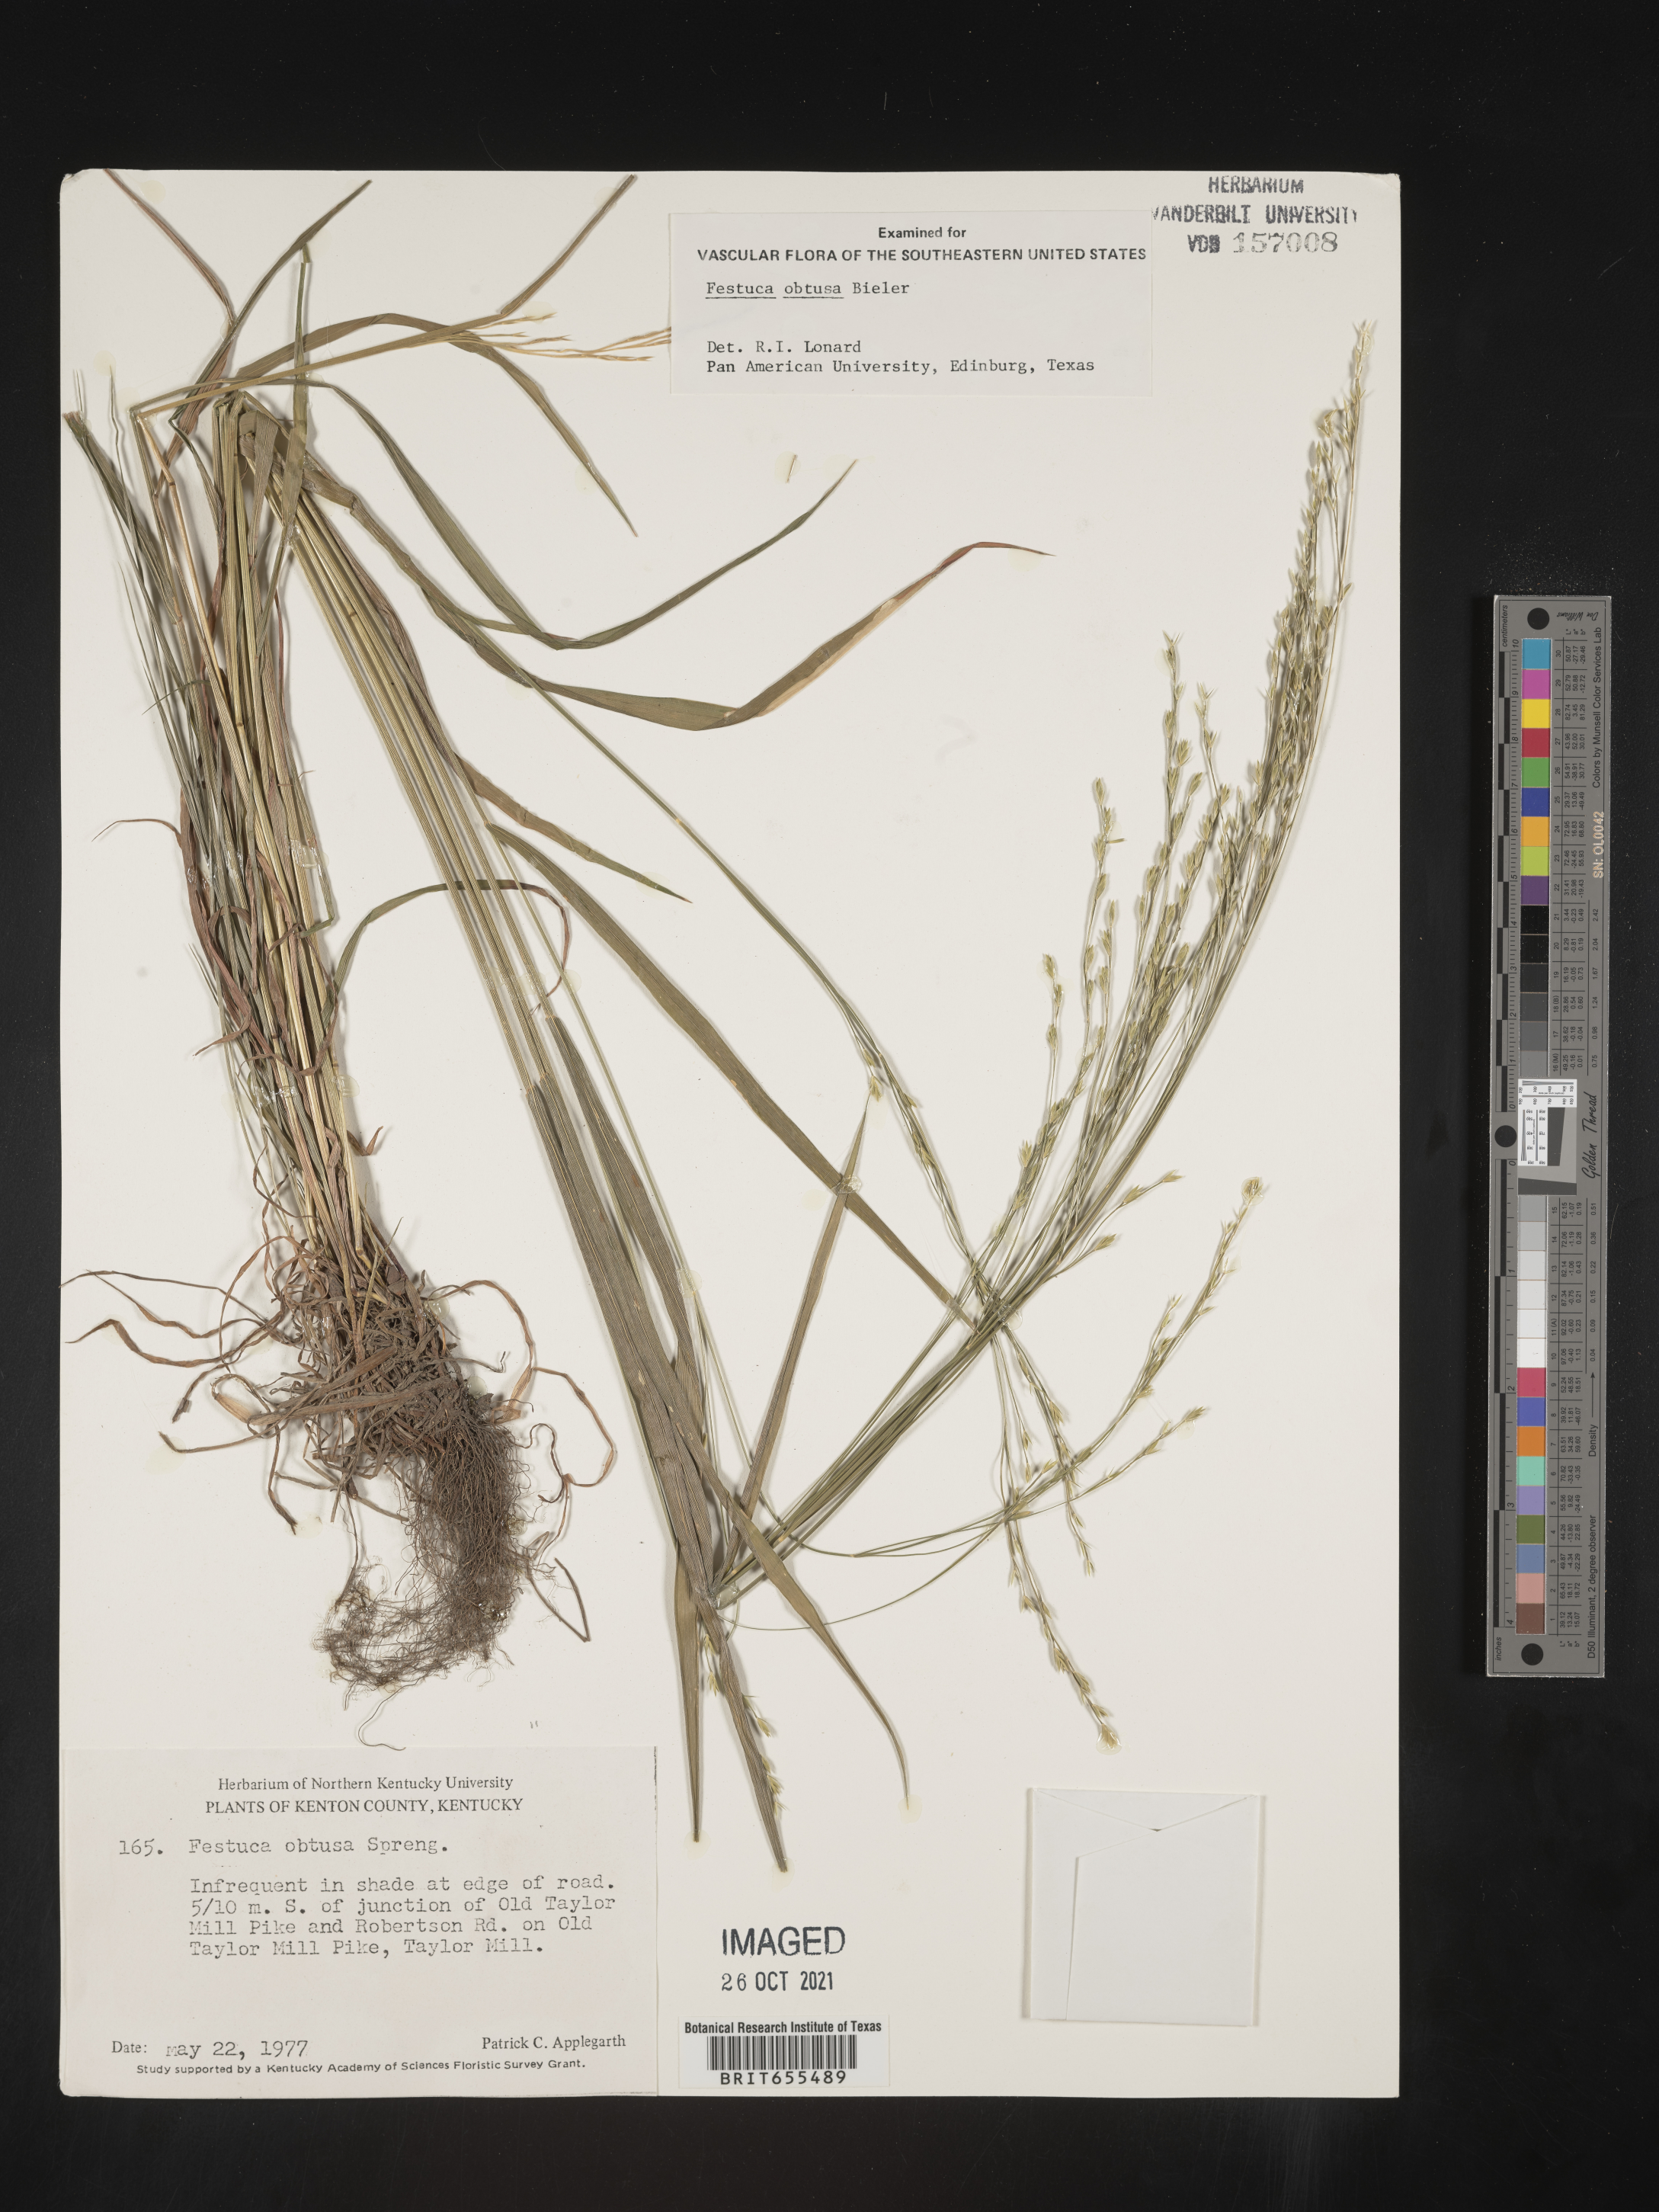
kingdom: Plantae
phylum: Tracheophyta
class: Liliopsida
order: Poales
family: Poaceae
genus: Festuca
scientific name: Festuca
